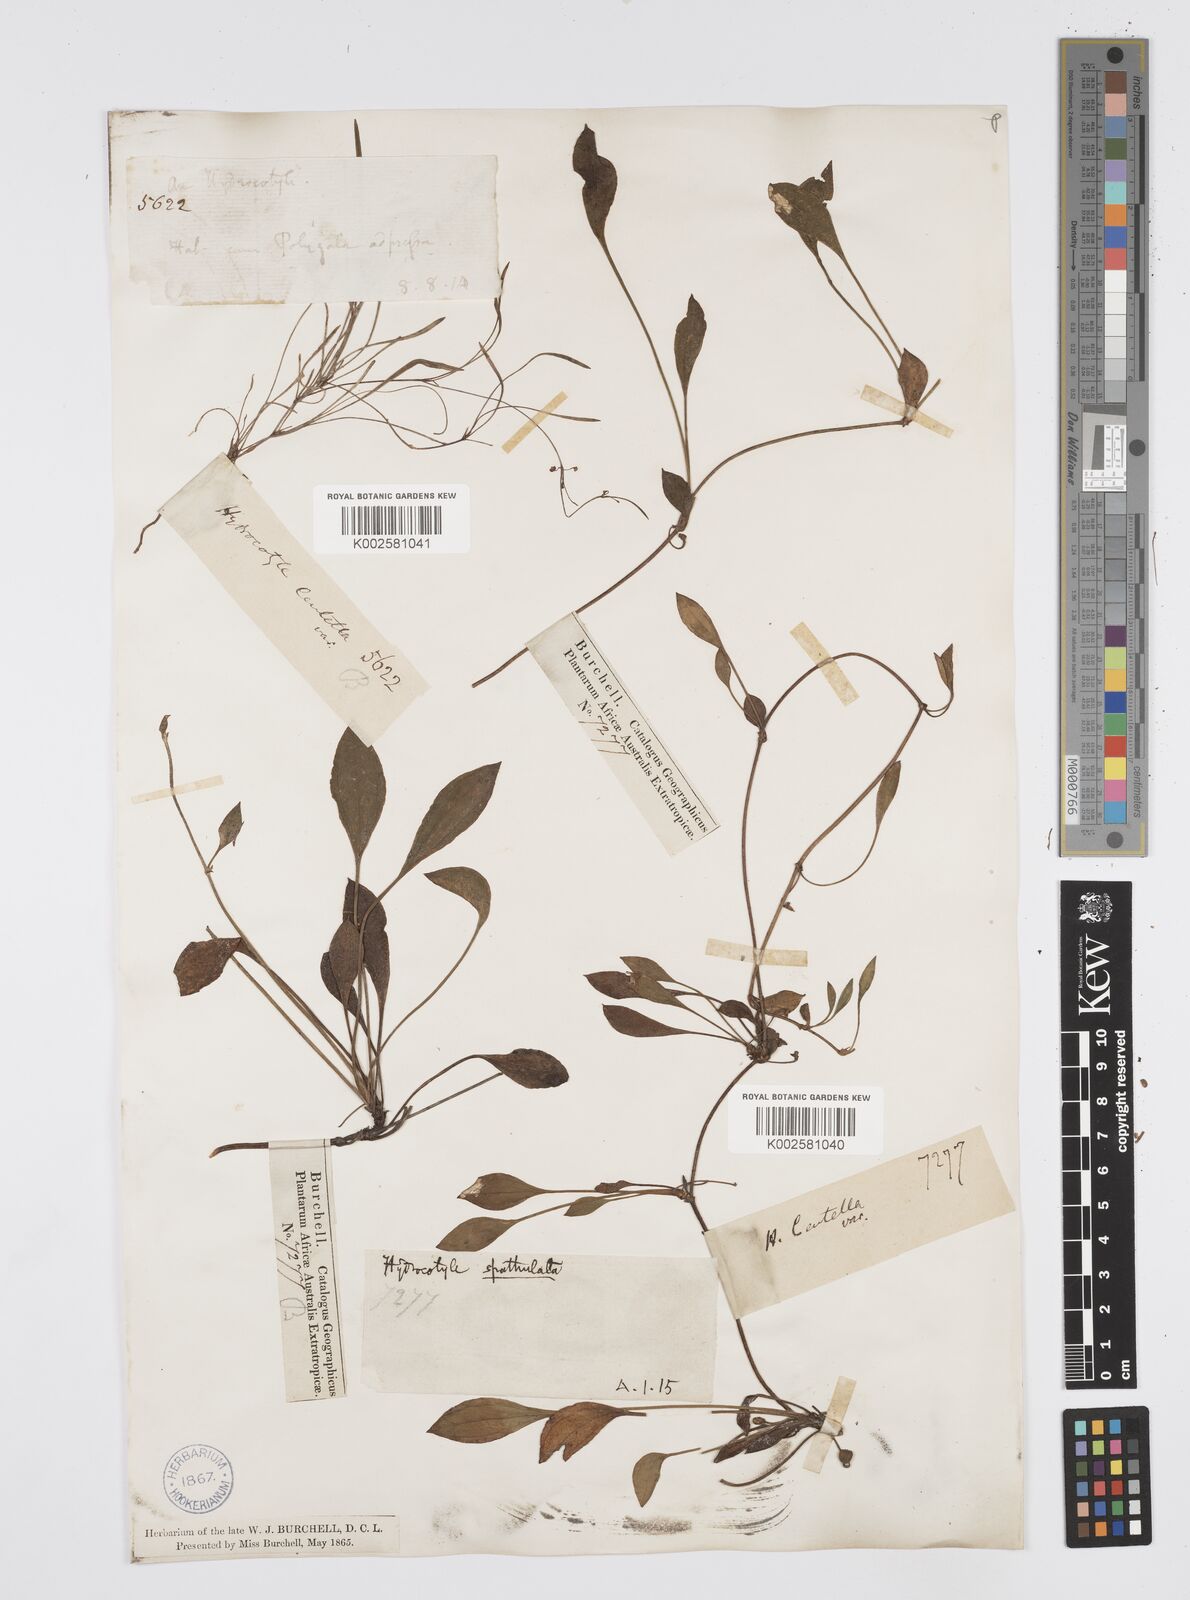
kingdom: Plantae
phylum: Tracheophyta
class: Magnoliopsida
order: Apiales
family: Apiaceae
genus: Centella
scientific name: Centella glabrata
